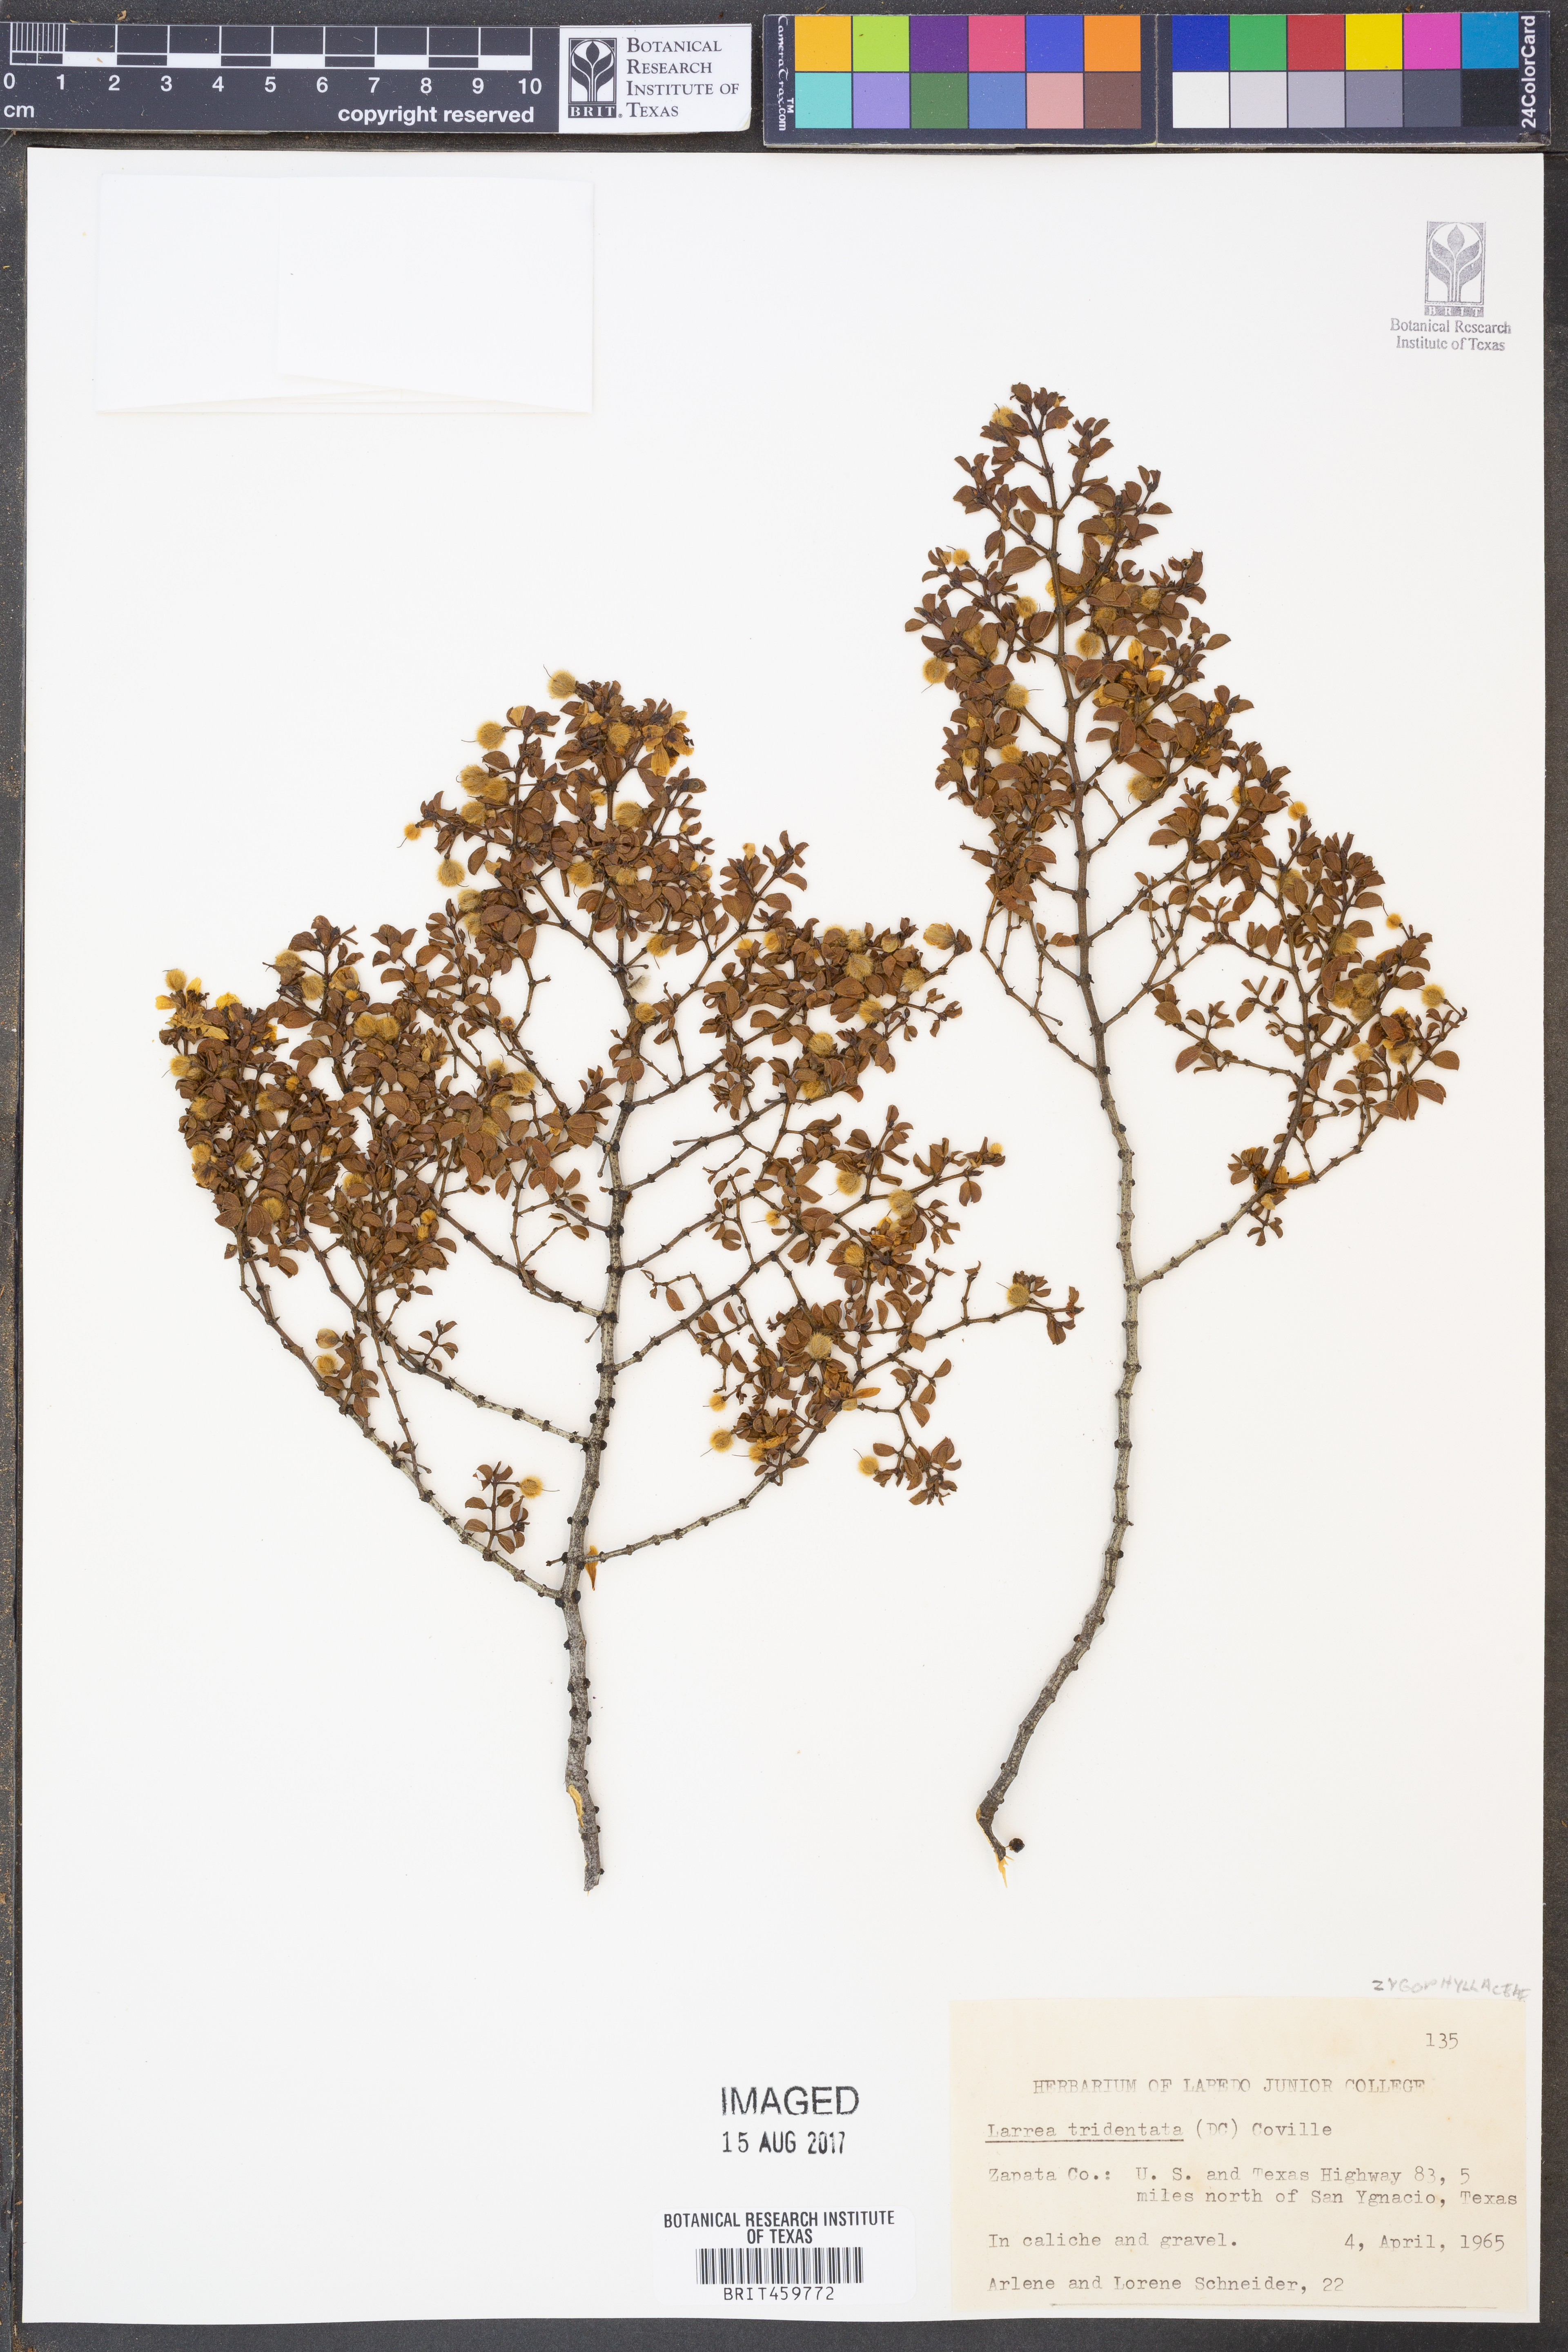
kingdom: Plantae
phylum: Tracheophyta
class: Magnoliopsida
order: Zygophyllales
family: Zygophyllaceae
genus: Larrea
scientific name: Larrea tridentata
